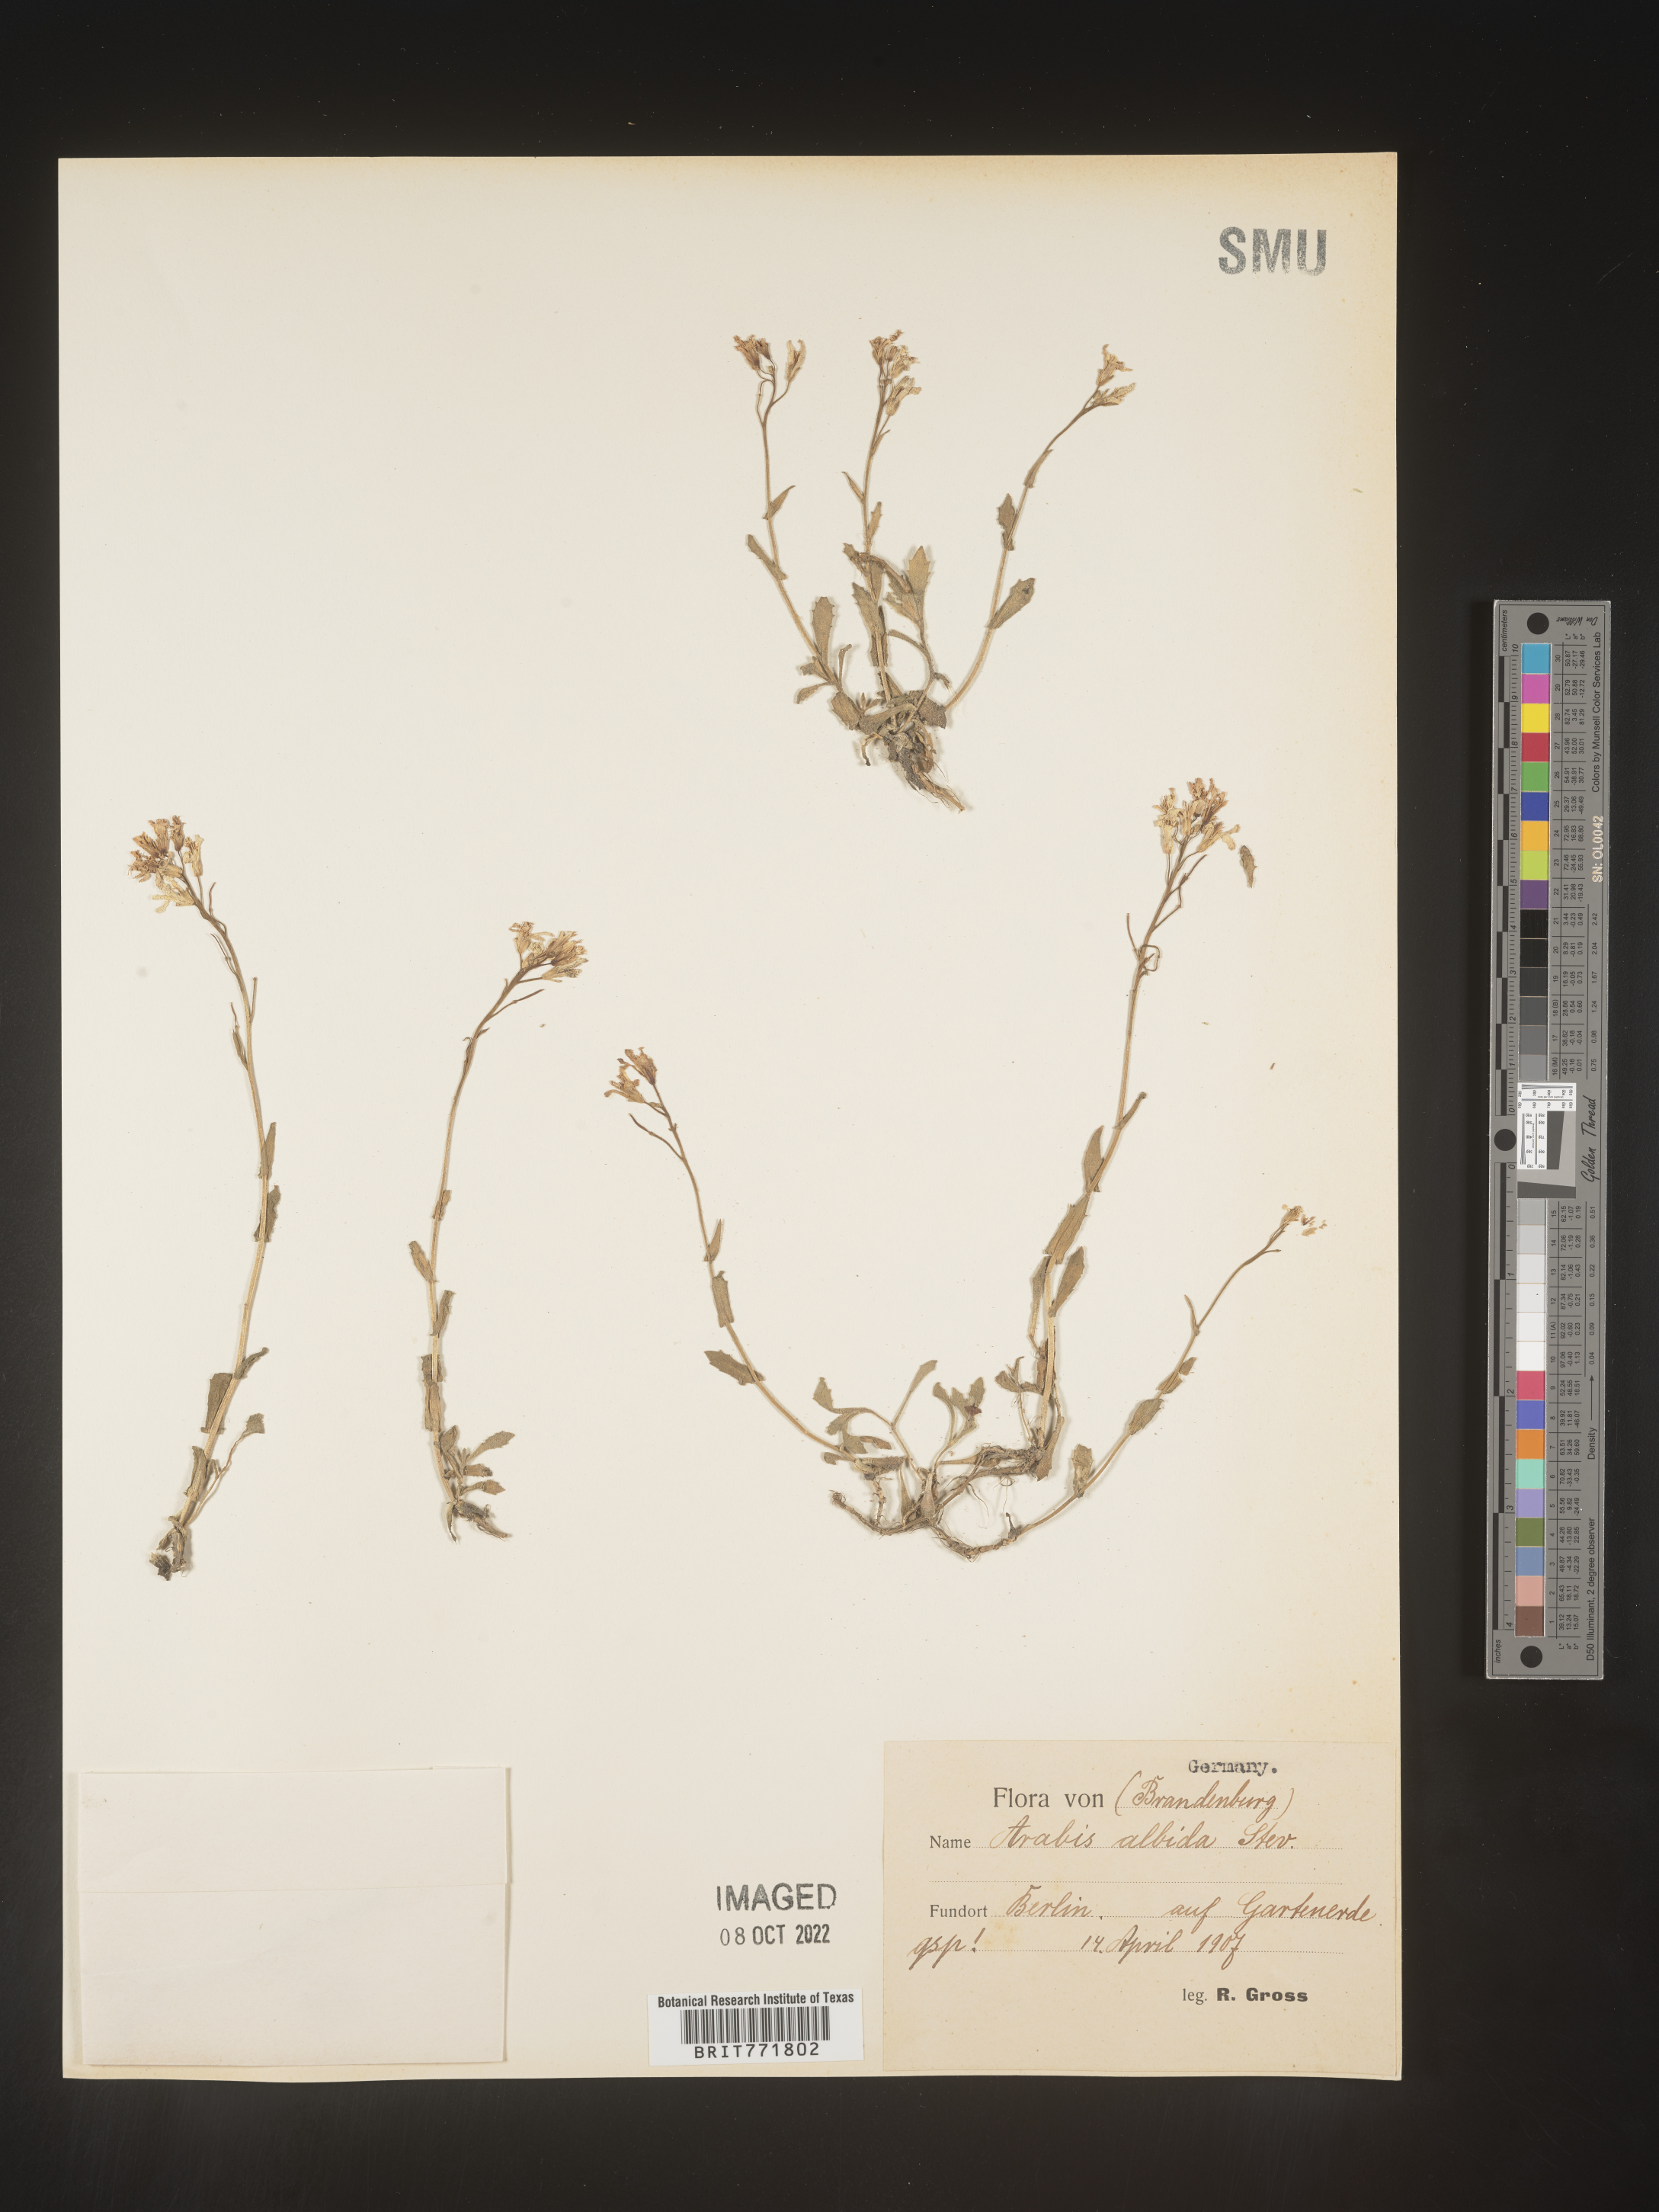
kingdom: Plantae
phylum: Tracheophyta
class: Magnoliopsida
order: Brassicales
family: Brassicaceae
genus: Arabis
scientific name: Arabis
